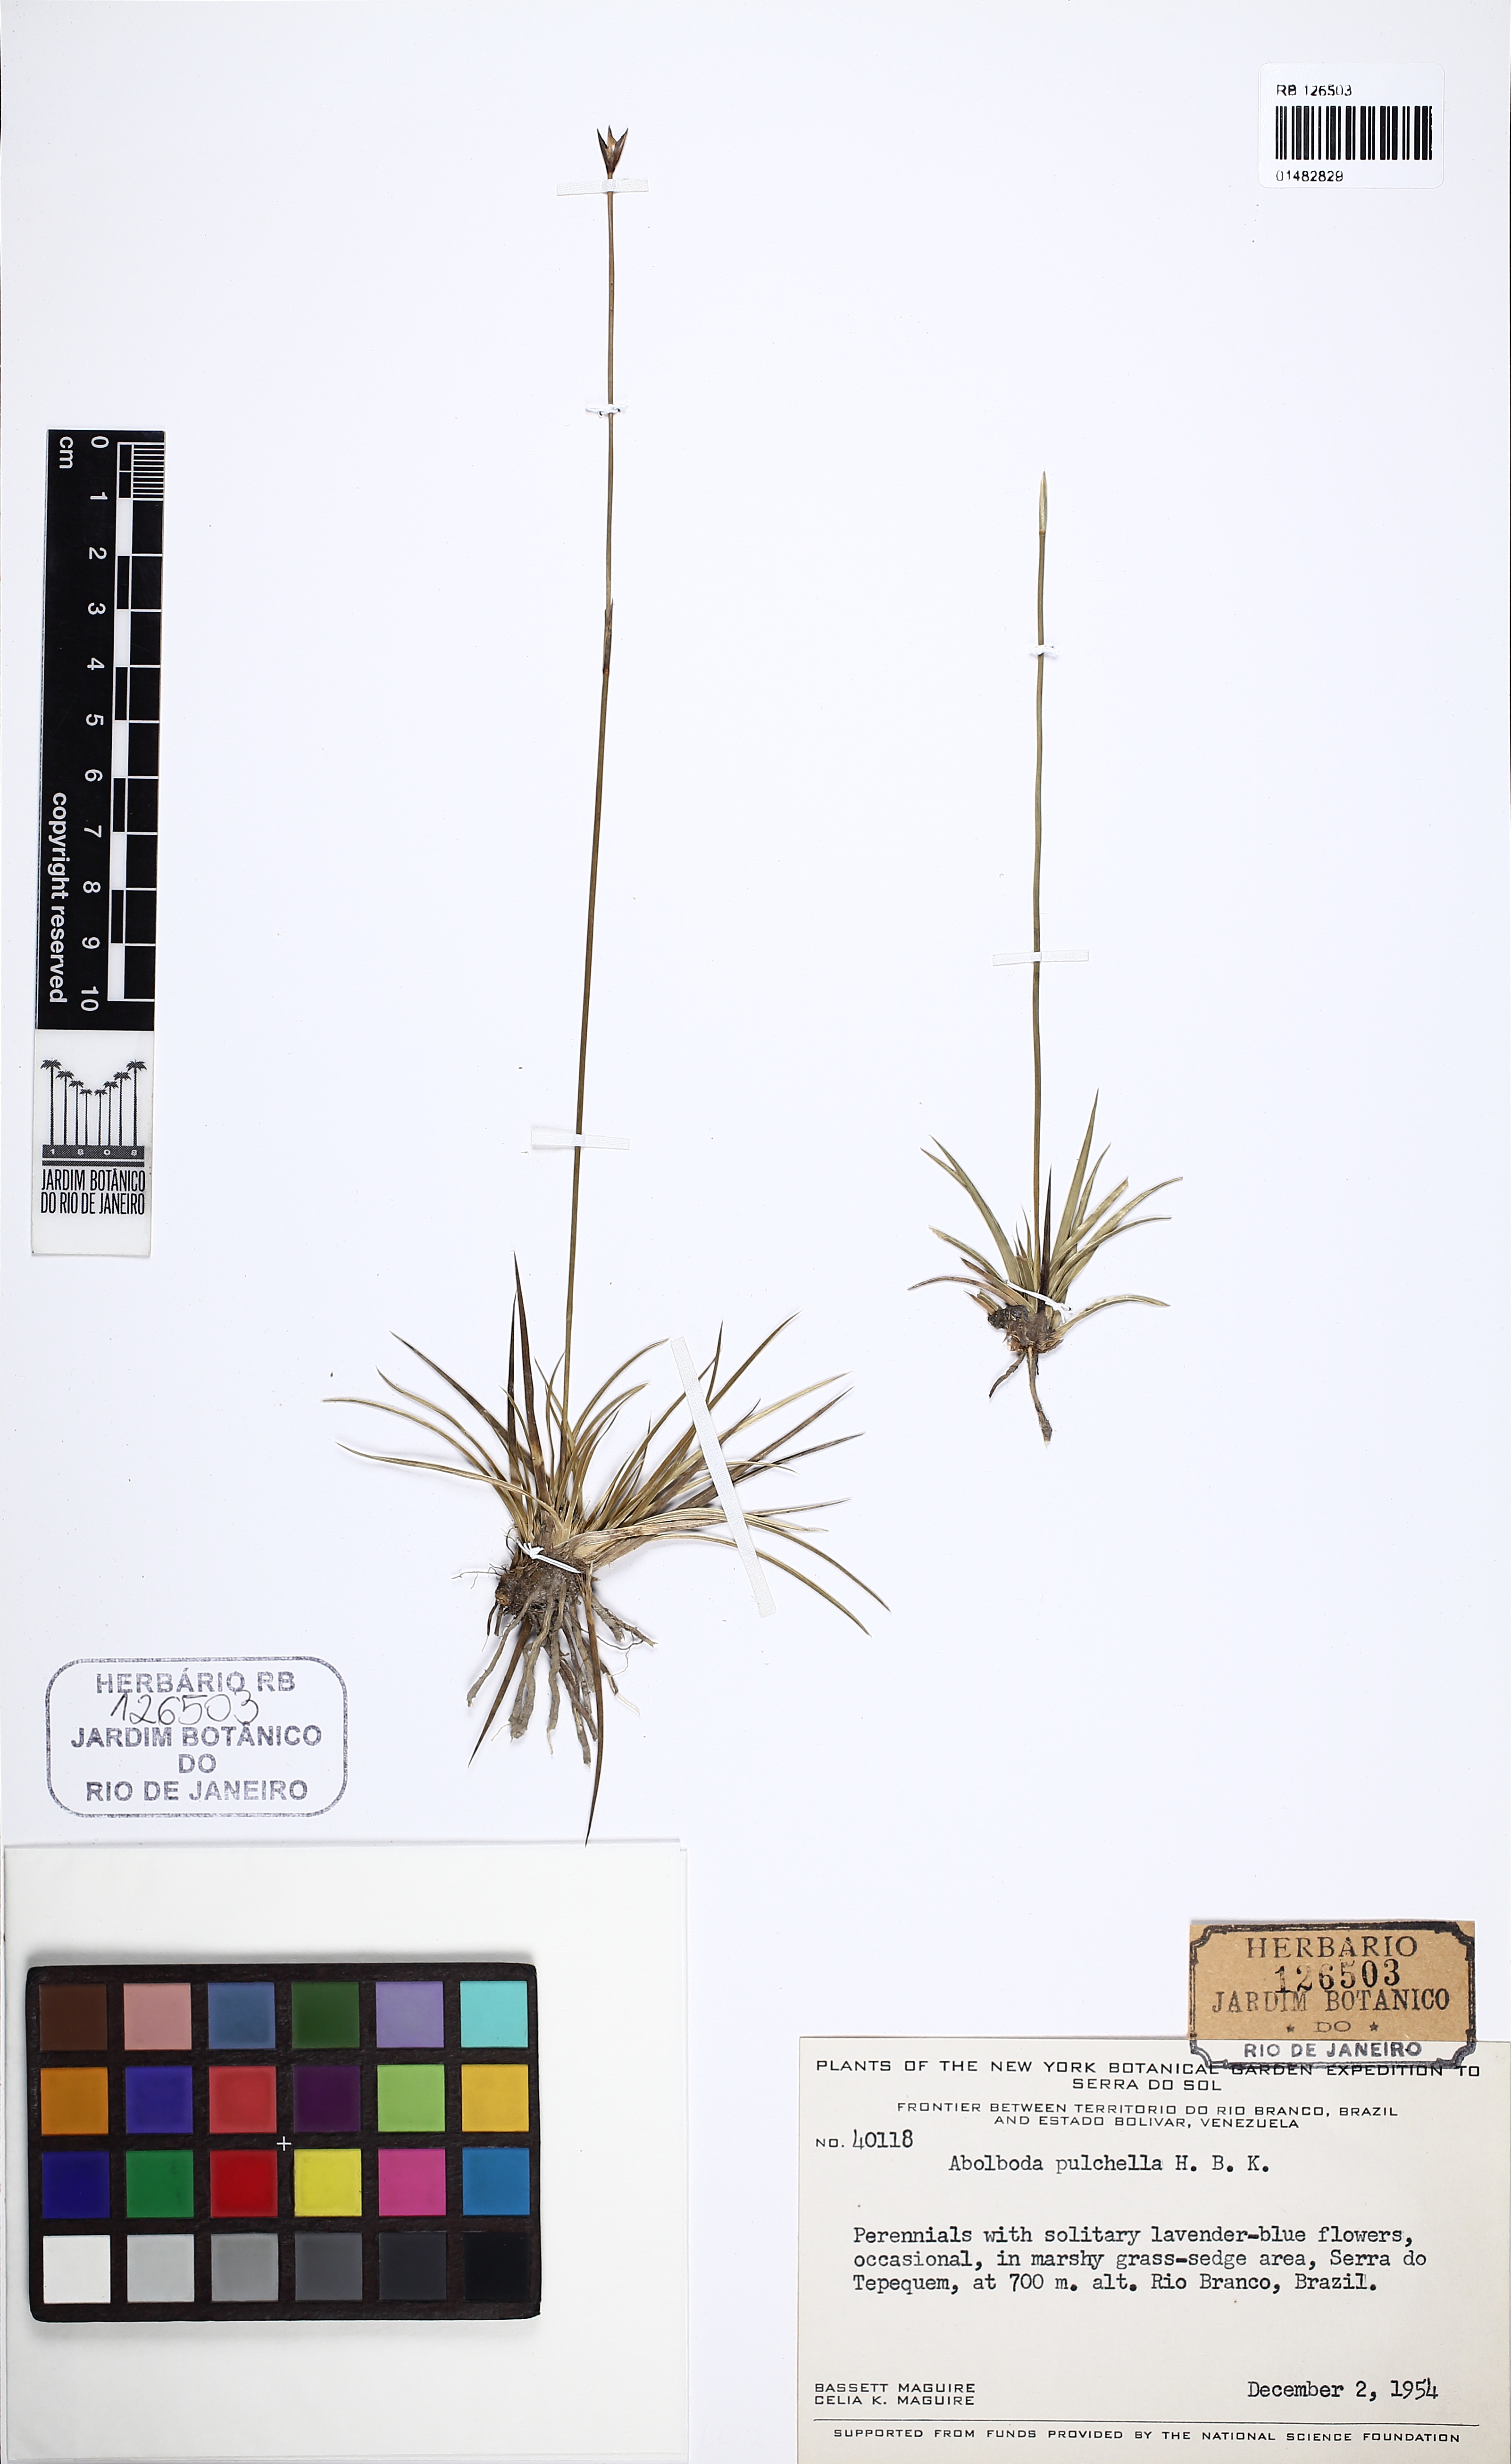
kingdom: Plantae
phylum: Tracheophyta
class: Liliopsida
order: Poales
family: Xyridaceae
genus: Abolboda
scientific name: Abolboda pulchella
